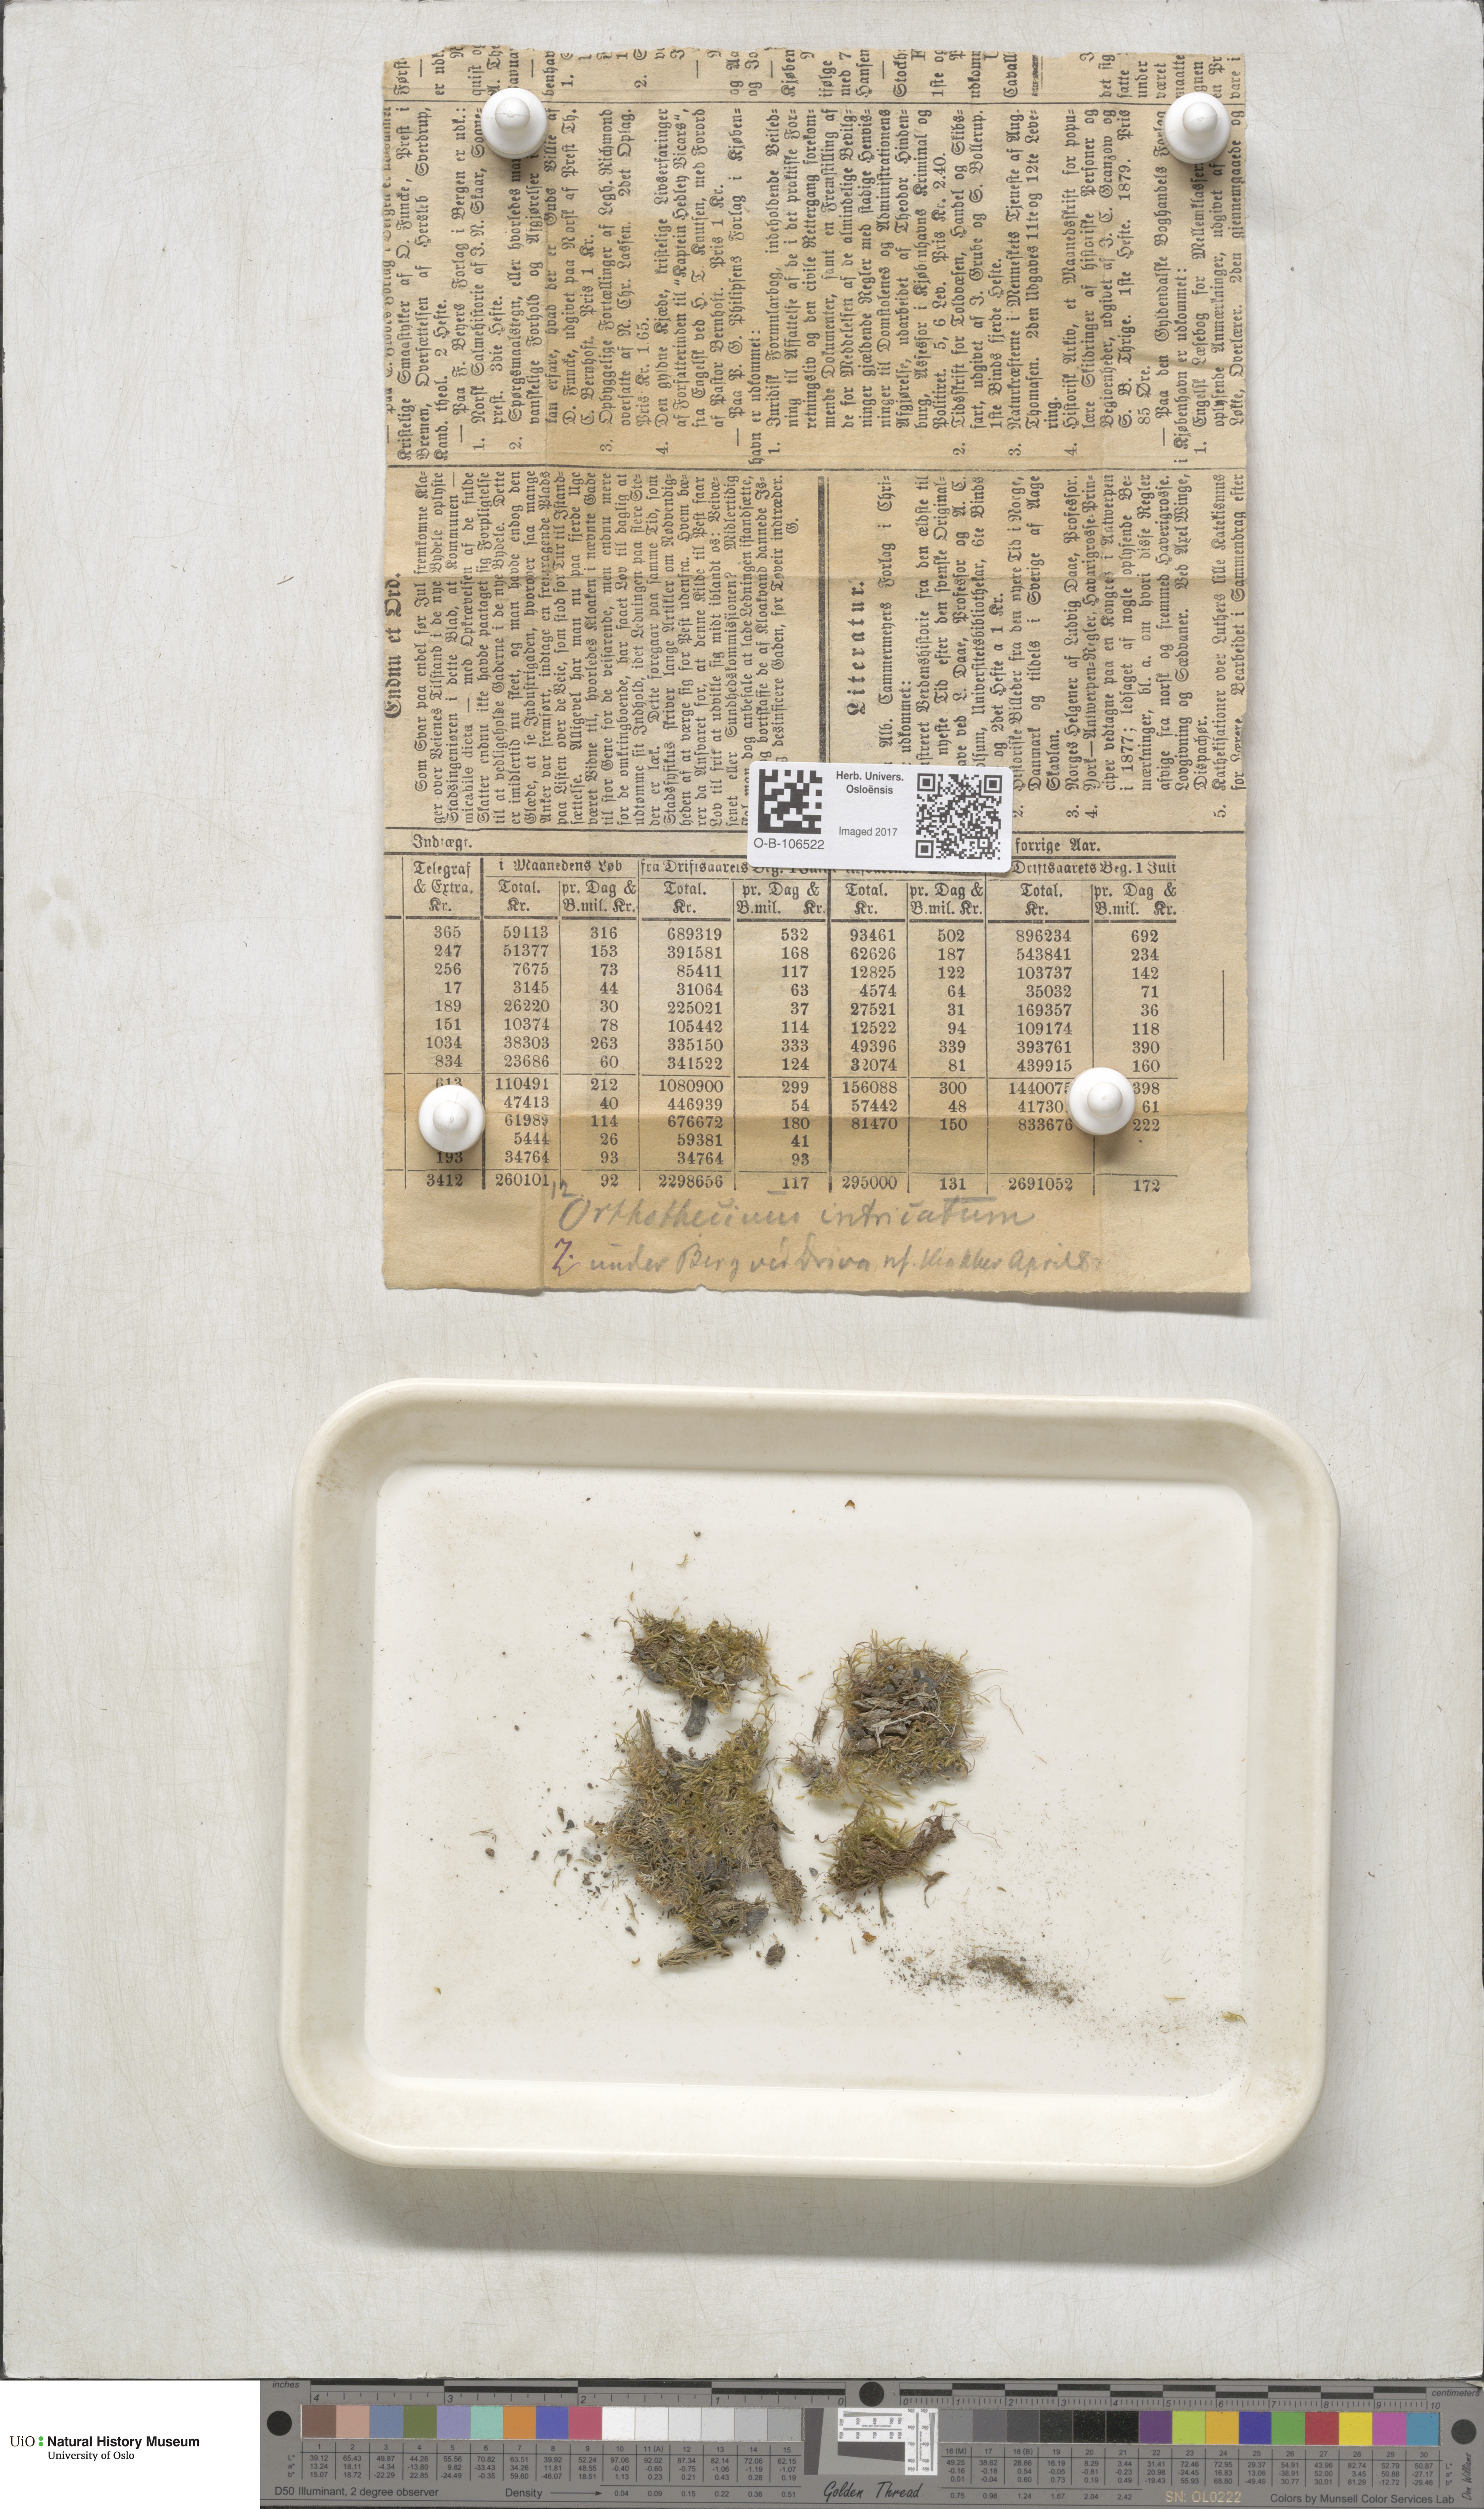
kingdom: Plantae
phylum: Bryophyta
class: Bryopsida
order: Hypnales
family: Plagiotheciaceae
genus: Orthothecium
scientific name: Orthothecium intricatum
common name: Fine-leaved erect-capsule moss
